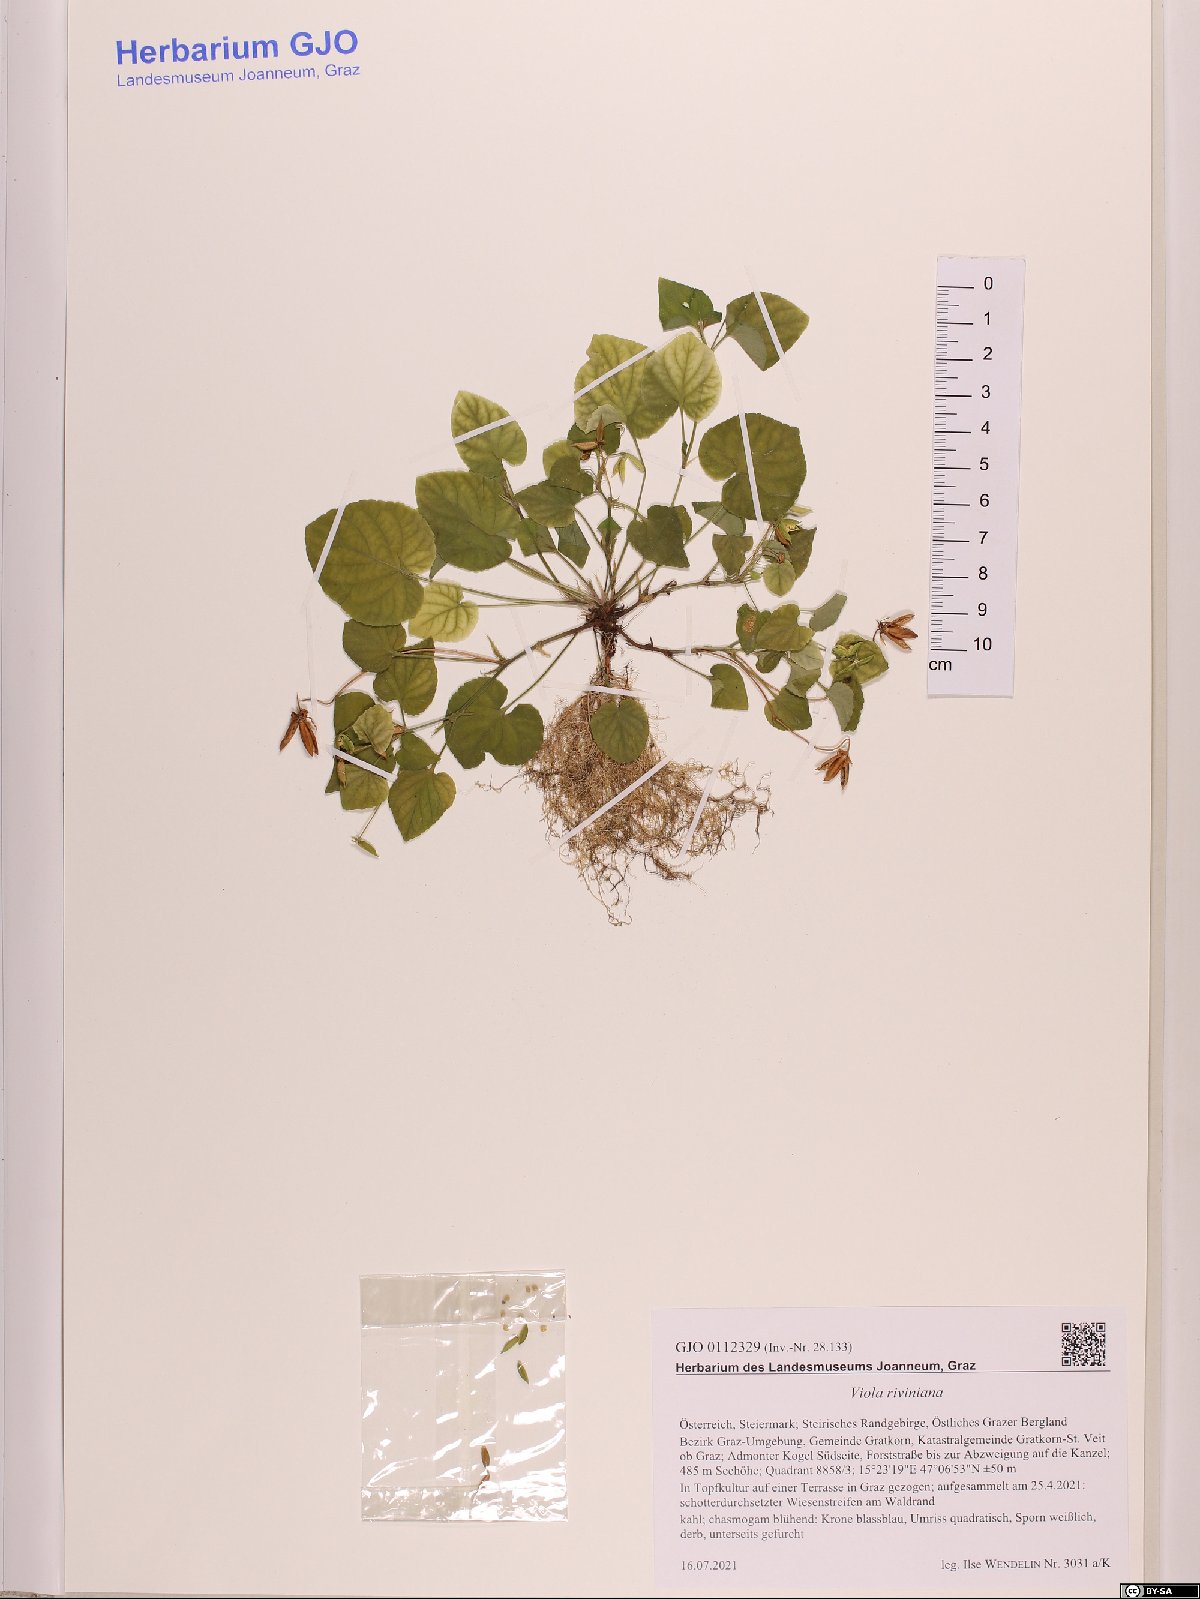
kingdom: Plantae
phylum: Tracheophyta
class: Magnoliopsida
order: Malpighiales
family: Violaceae
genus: Viola
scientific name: Viola riviniana
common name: Common dog-violet
